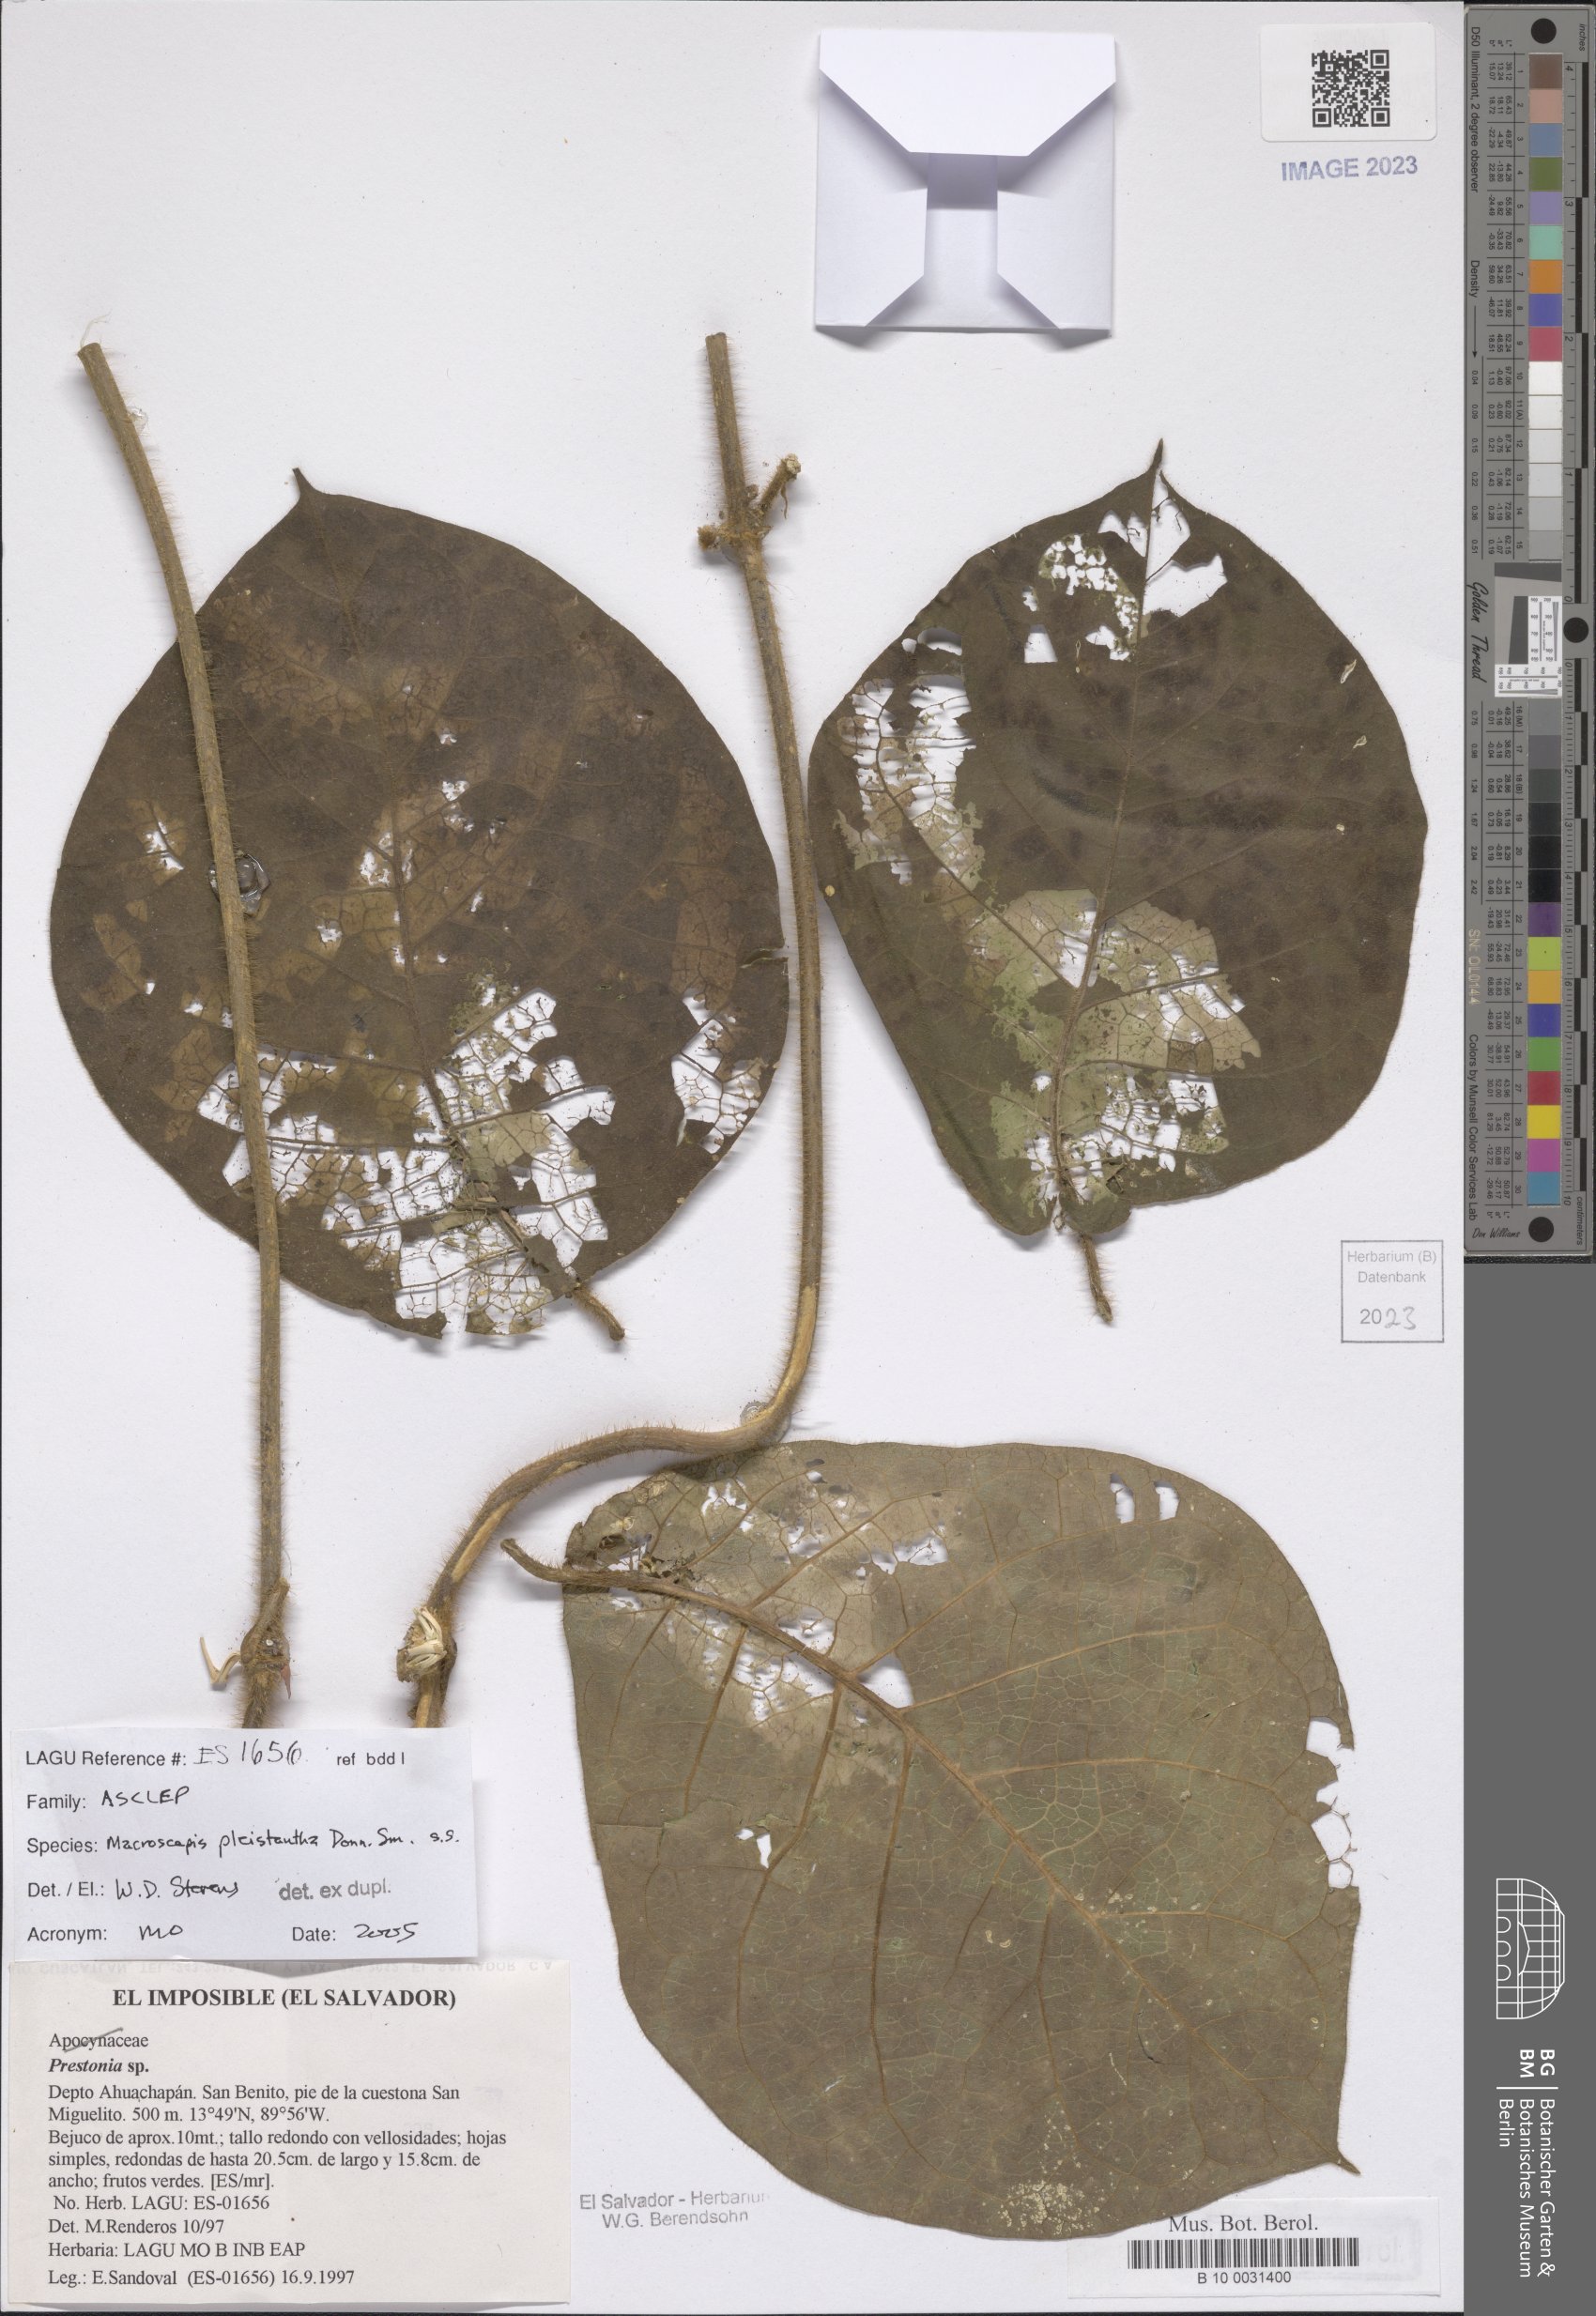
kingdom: Plantae
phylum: Tracheophyta
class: Magnoliopsida
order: Gentianales
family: Apocynaceae
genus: Macroscepis
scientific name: Macroscepis pleistantha
